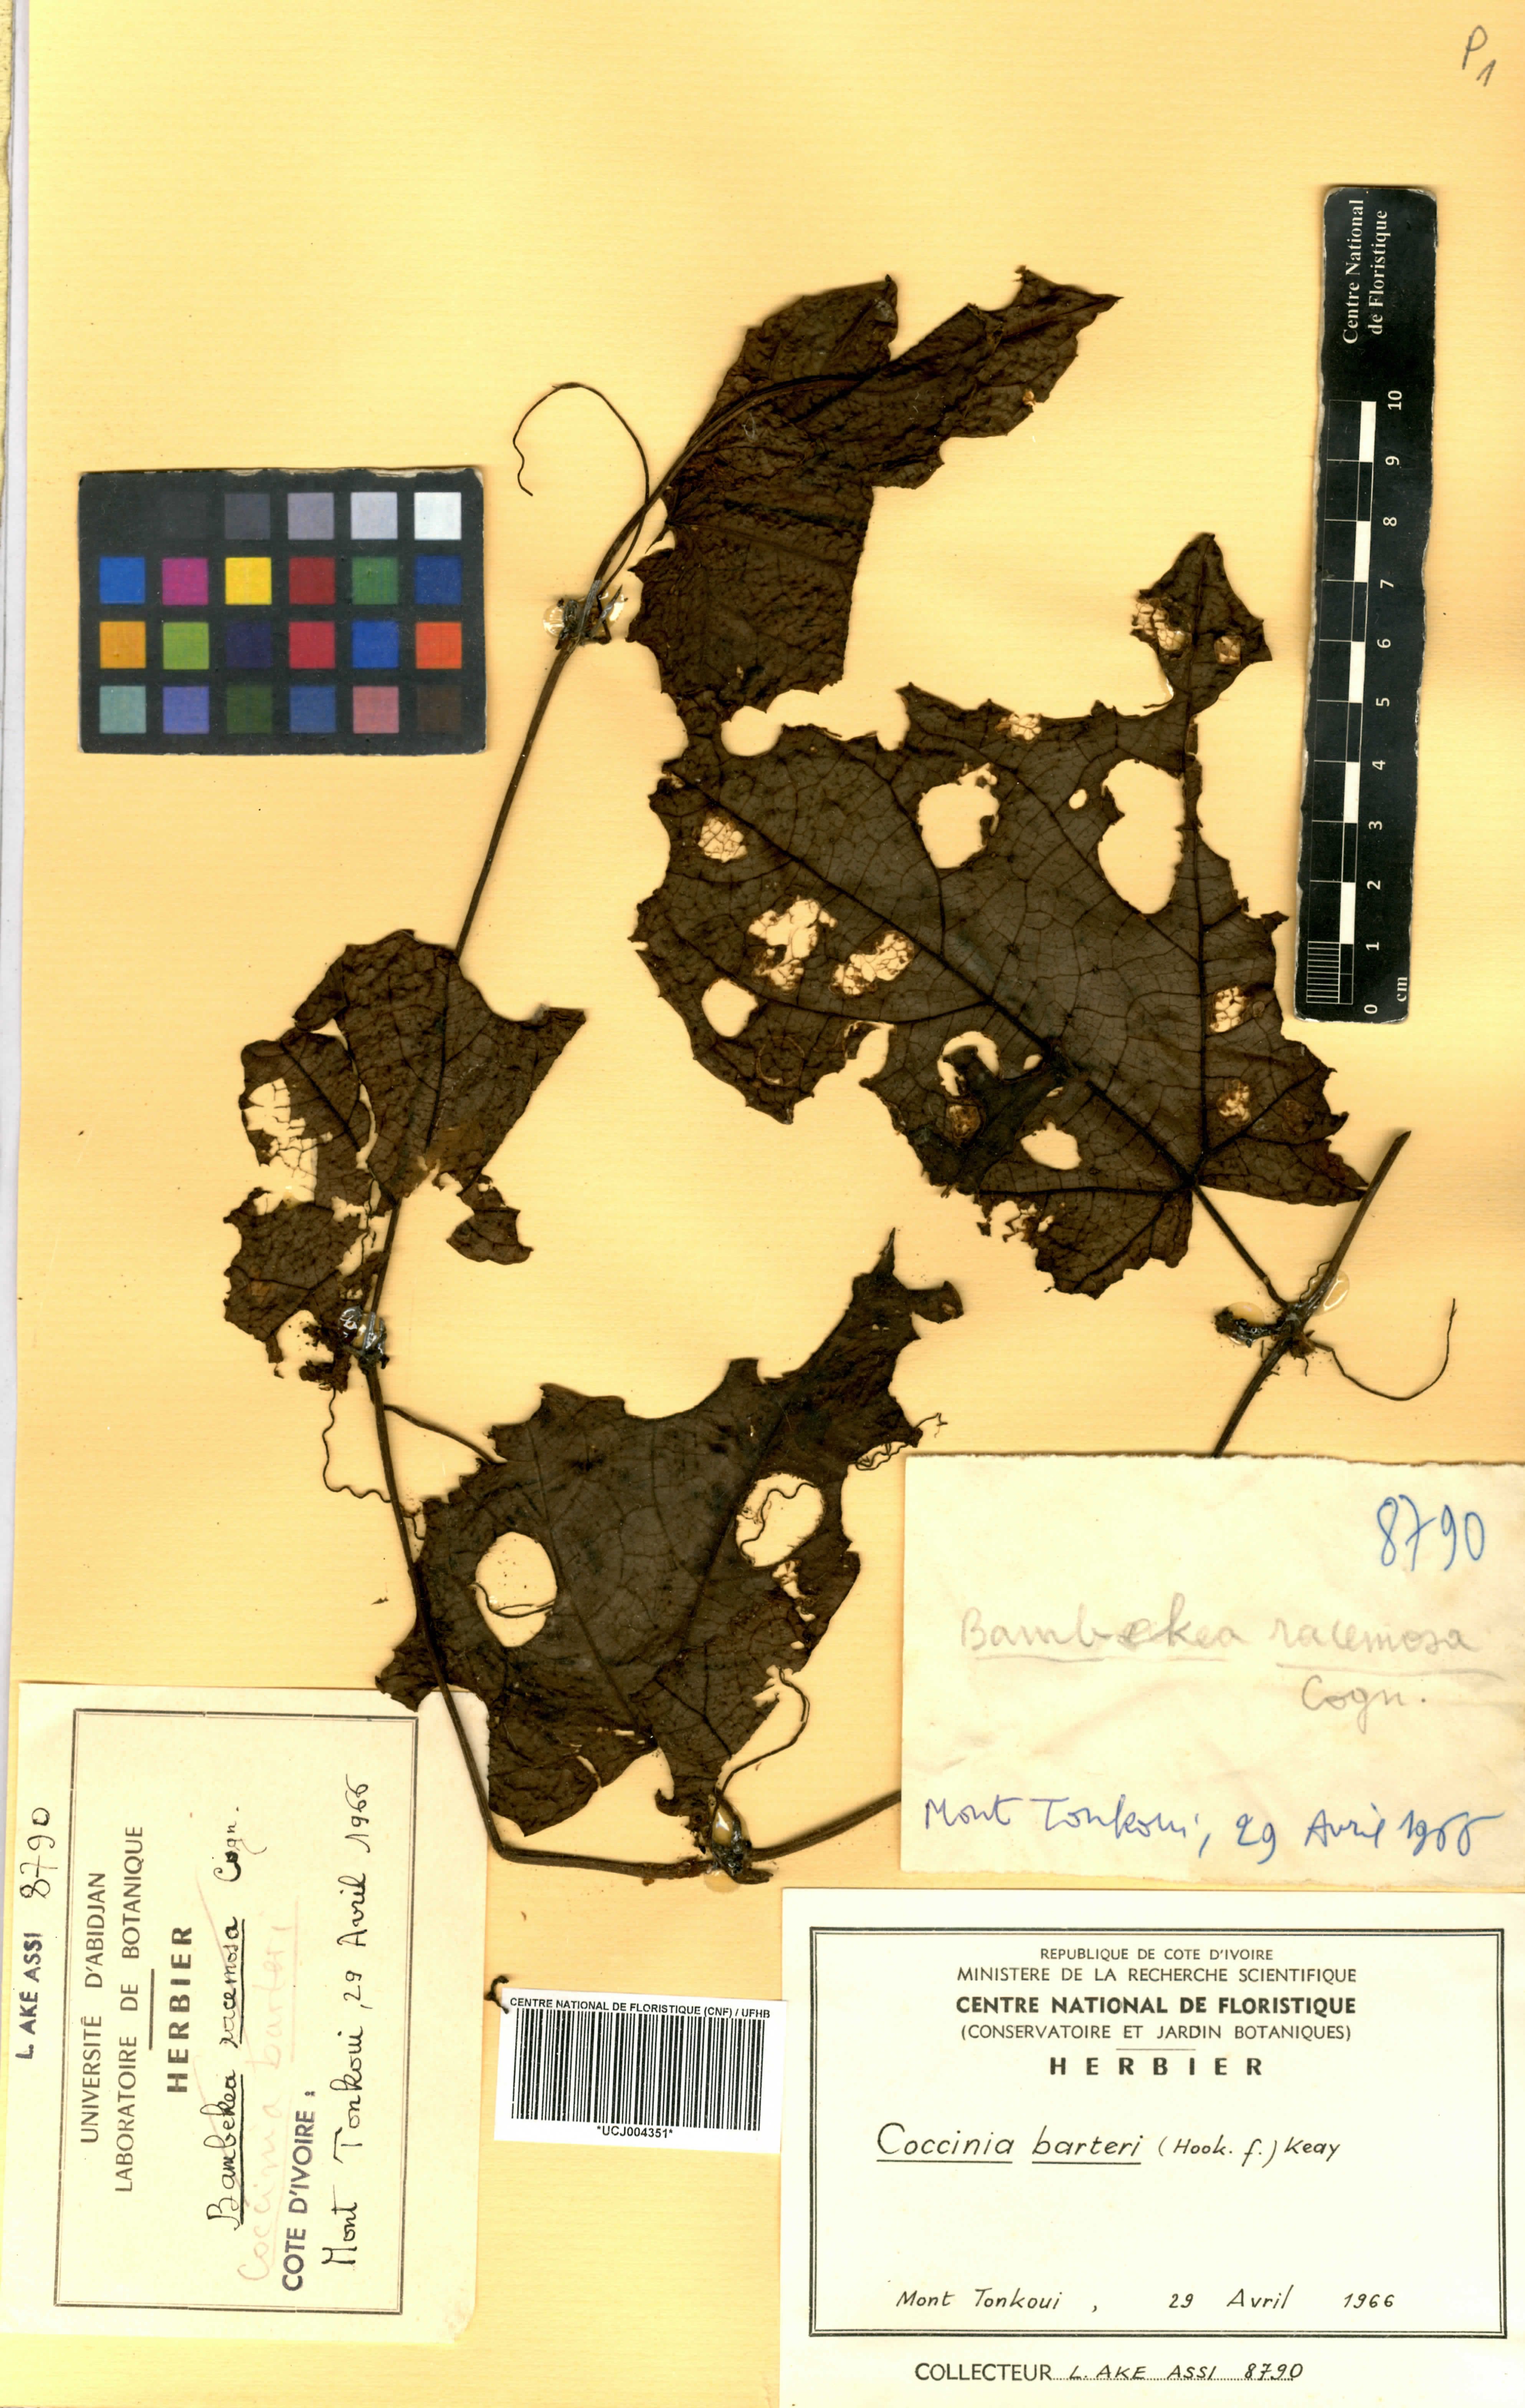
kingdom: Plantae
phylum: Tracheophyta
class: Magnoliopsida
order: Cucurbitales
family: Cucurbitaceae
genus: Coccinia
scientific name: Coccinia barteri
